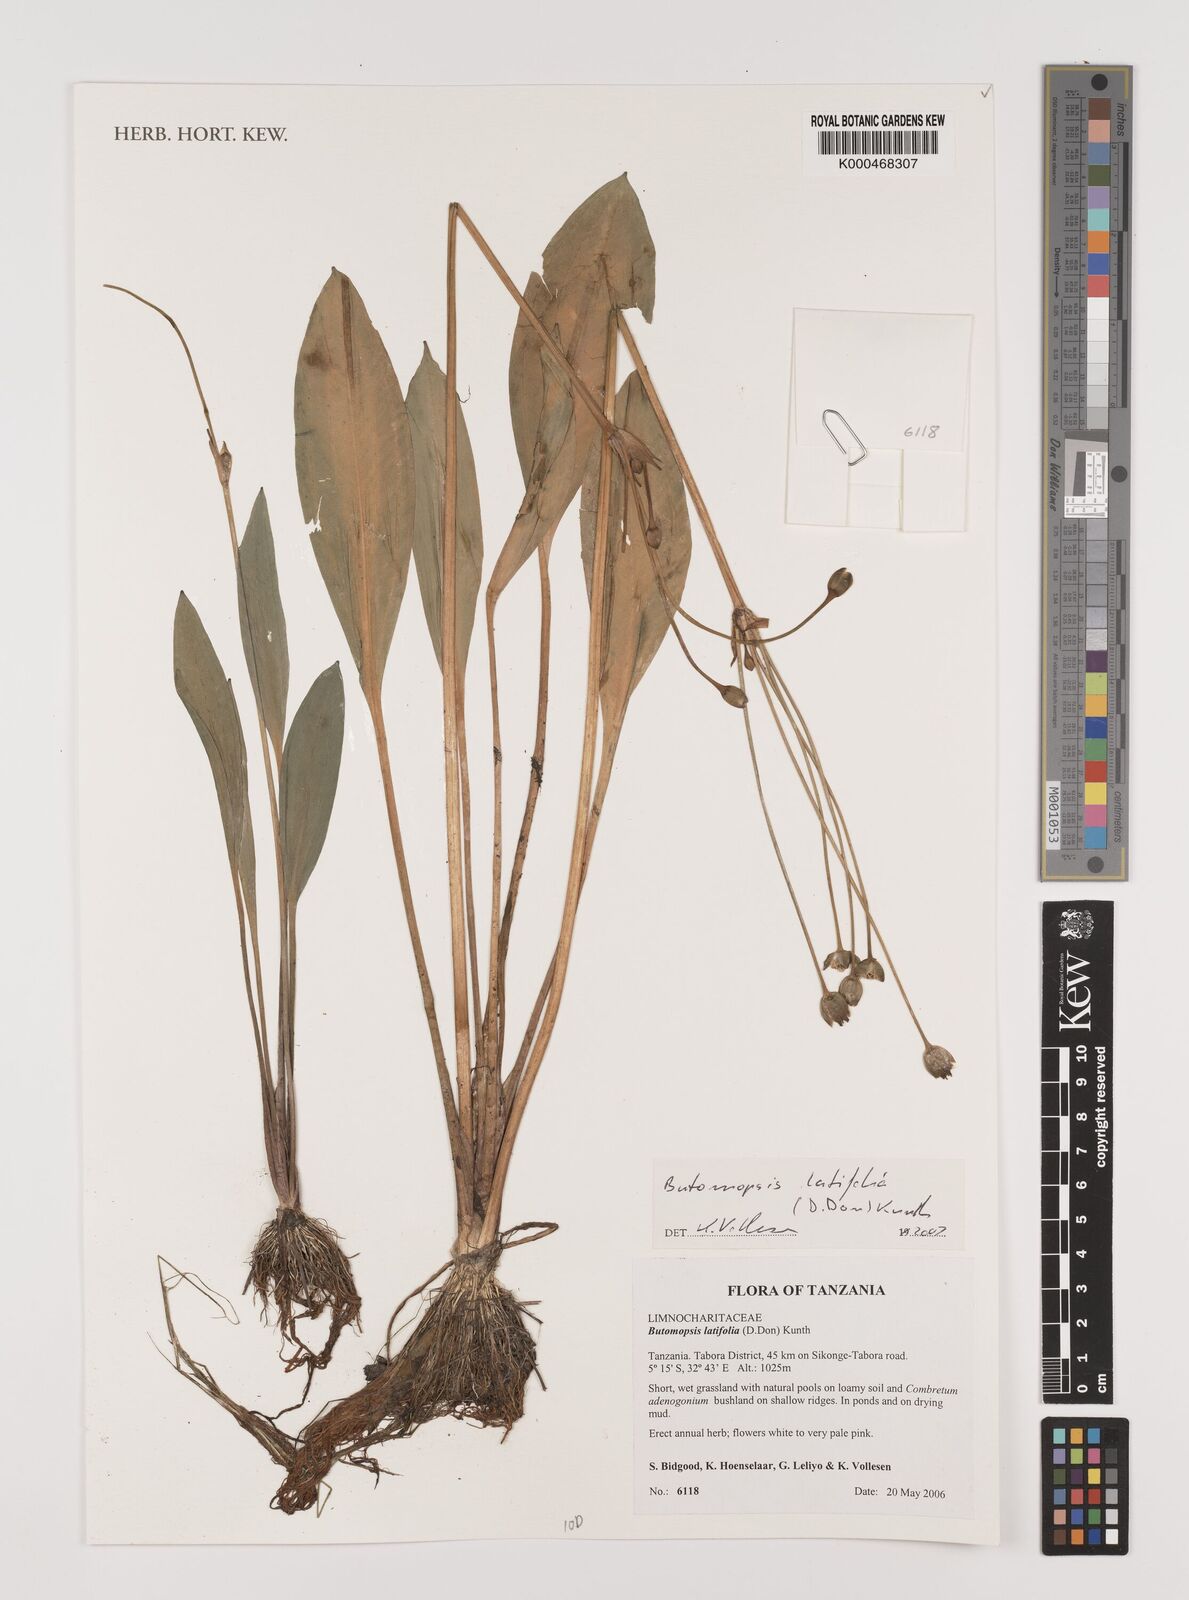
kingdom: Plantae
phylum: Tracheophyta
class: Liliopsida
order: Alismatales
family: Alismataceae
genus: Butomopsis
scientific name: Butomopsis latifolia
